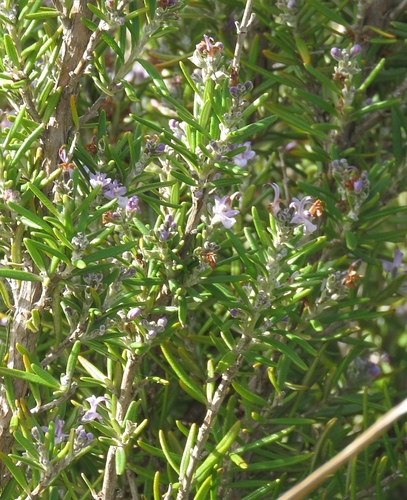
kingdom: Plantae
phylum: Tracheophyta
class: Magnoliopsida
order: Lamiales
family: Lamiaceae
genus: Salvia
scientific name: Salvia rosmarinus
